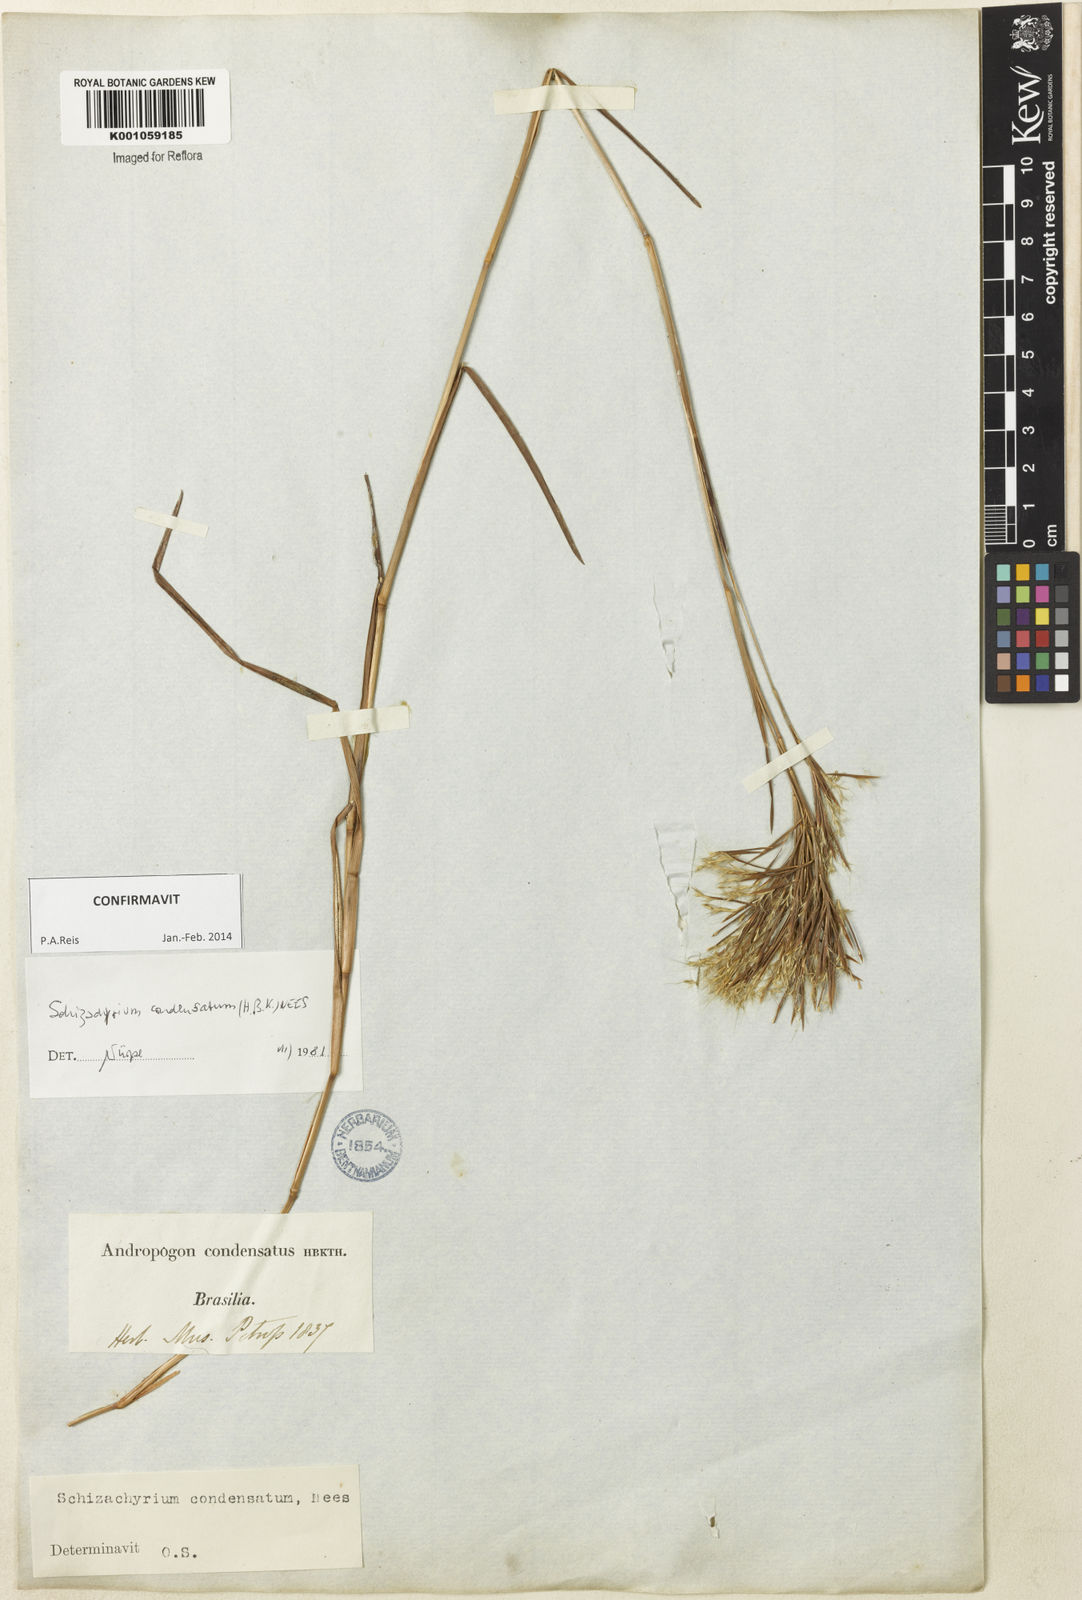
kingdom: Plantae
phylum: Tracheophyta
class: Liliopsida
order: Poales
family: Poaceae
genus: Schizachyrium
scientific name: Schizachyrium condensatum
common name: Bush beardgrass
